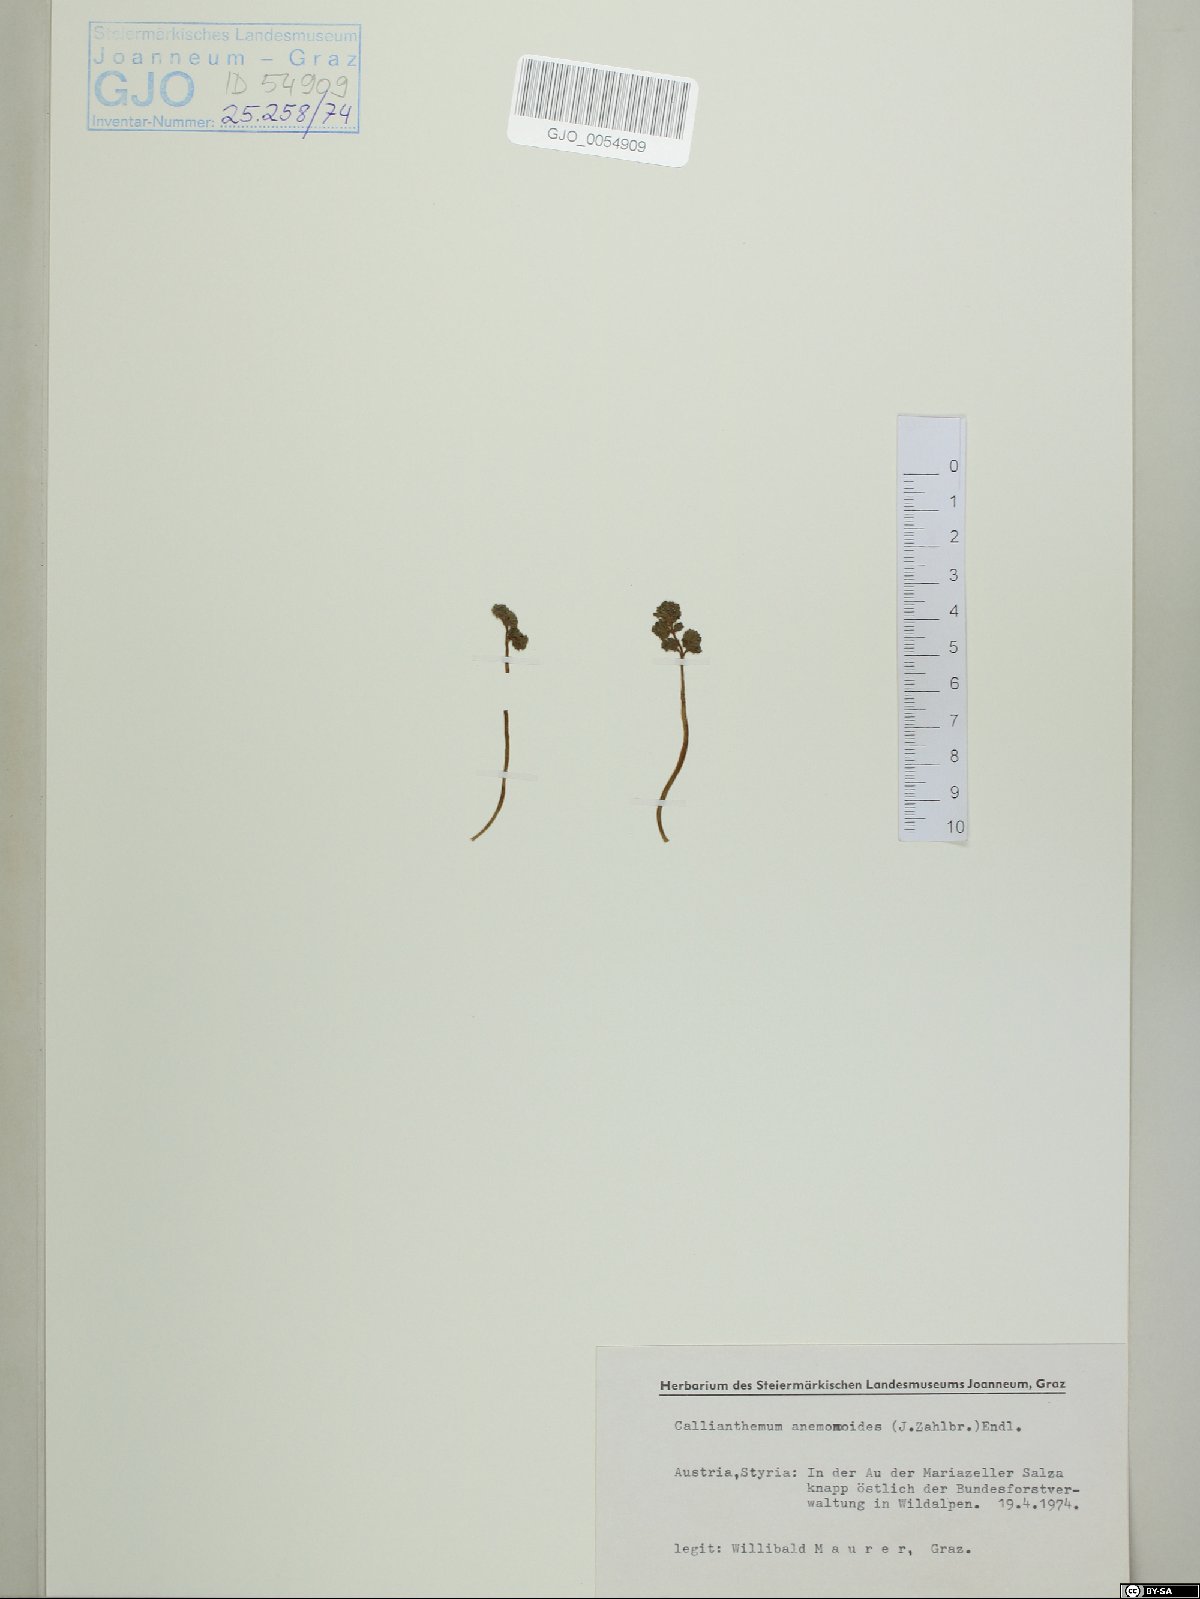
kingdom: Plantae
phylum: Tracheophyta
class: Magnoliopsida
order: Ranunculales
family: Ranunculaceae
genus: Callianthemum
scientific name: Callianthemum anemonoides
